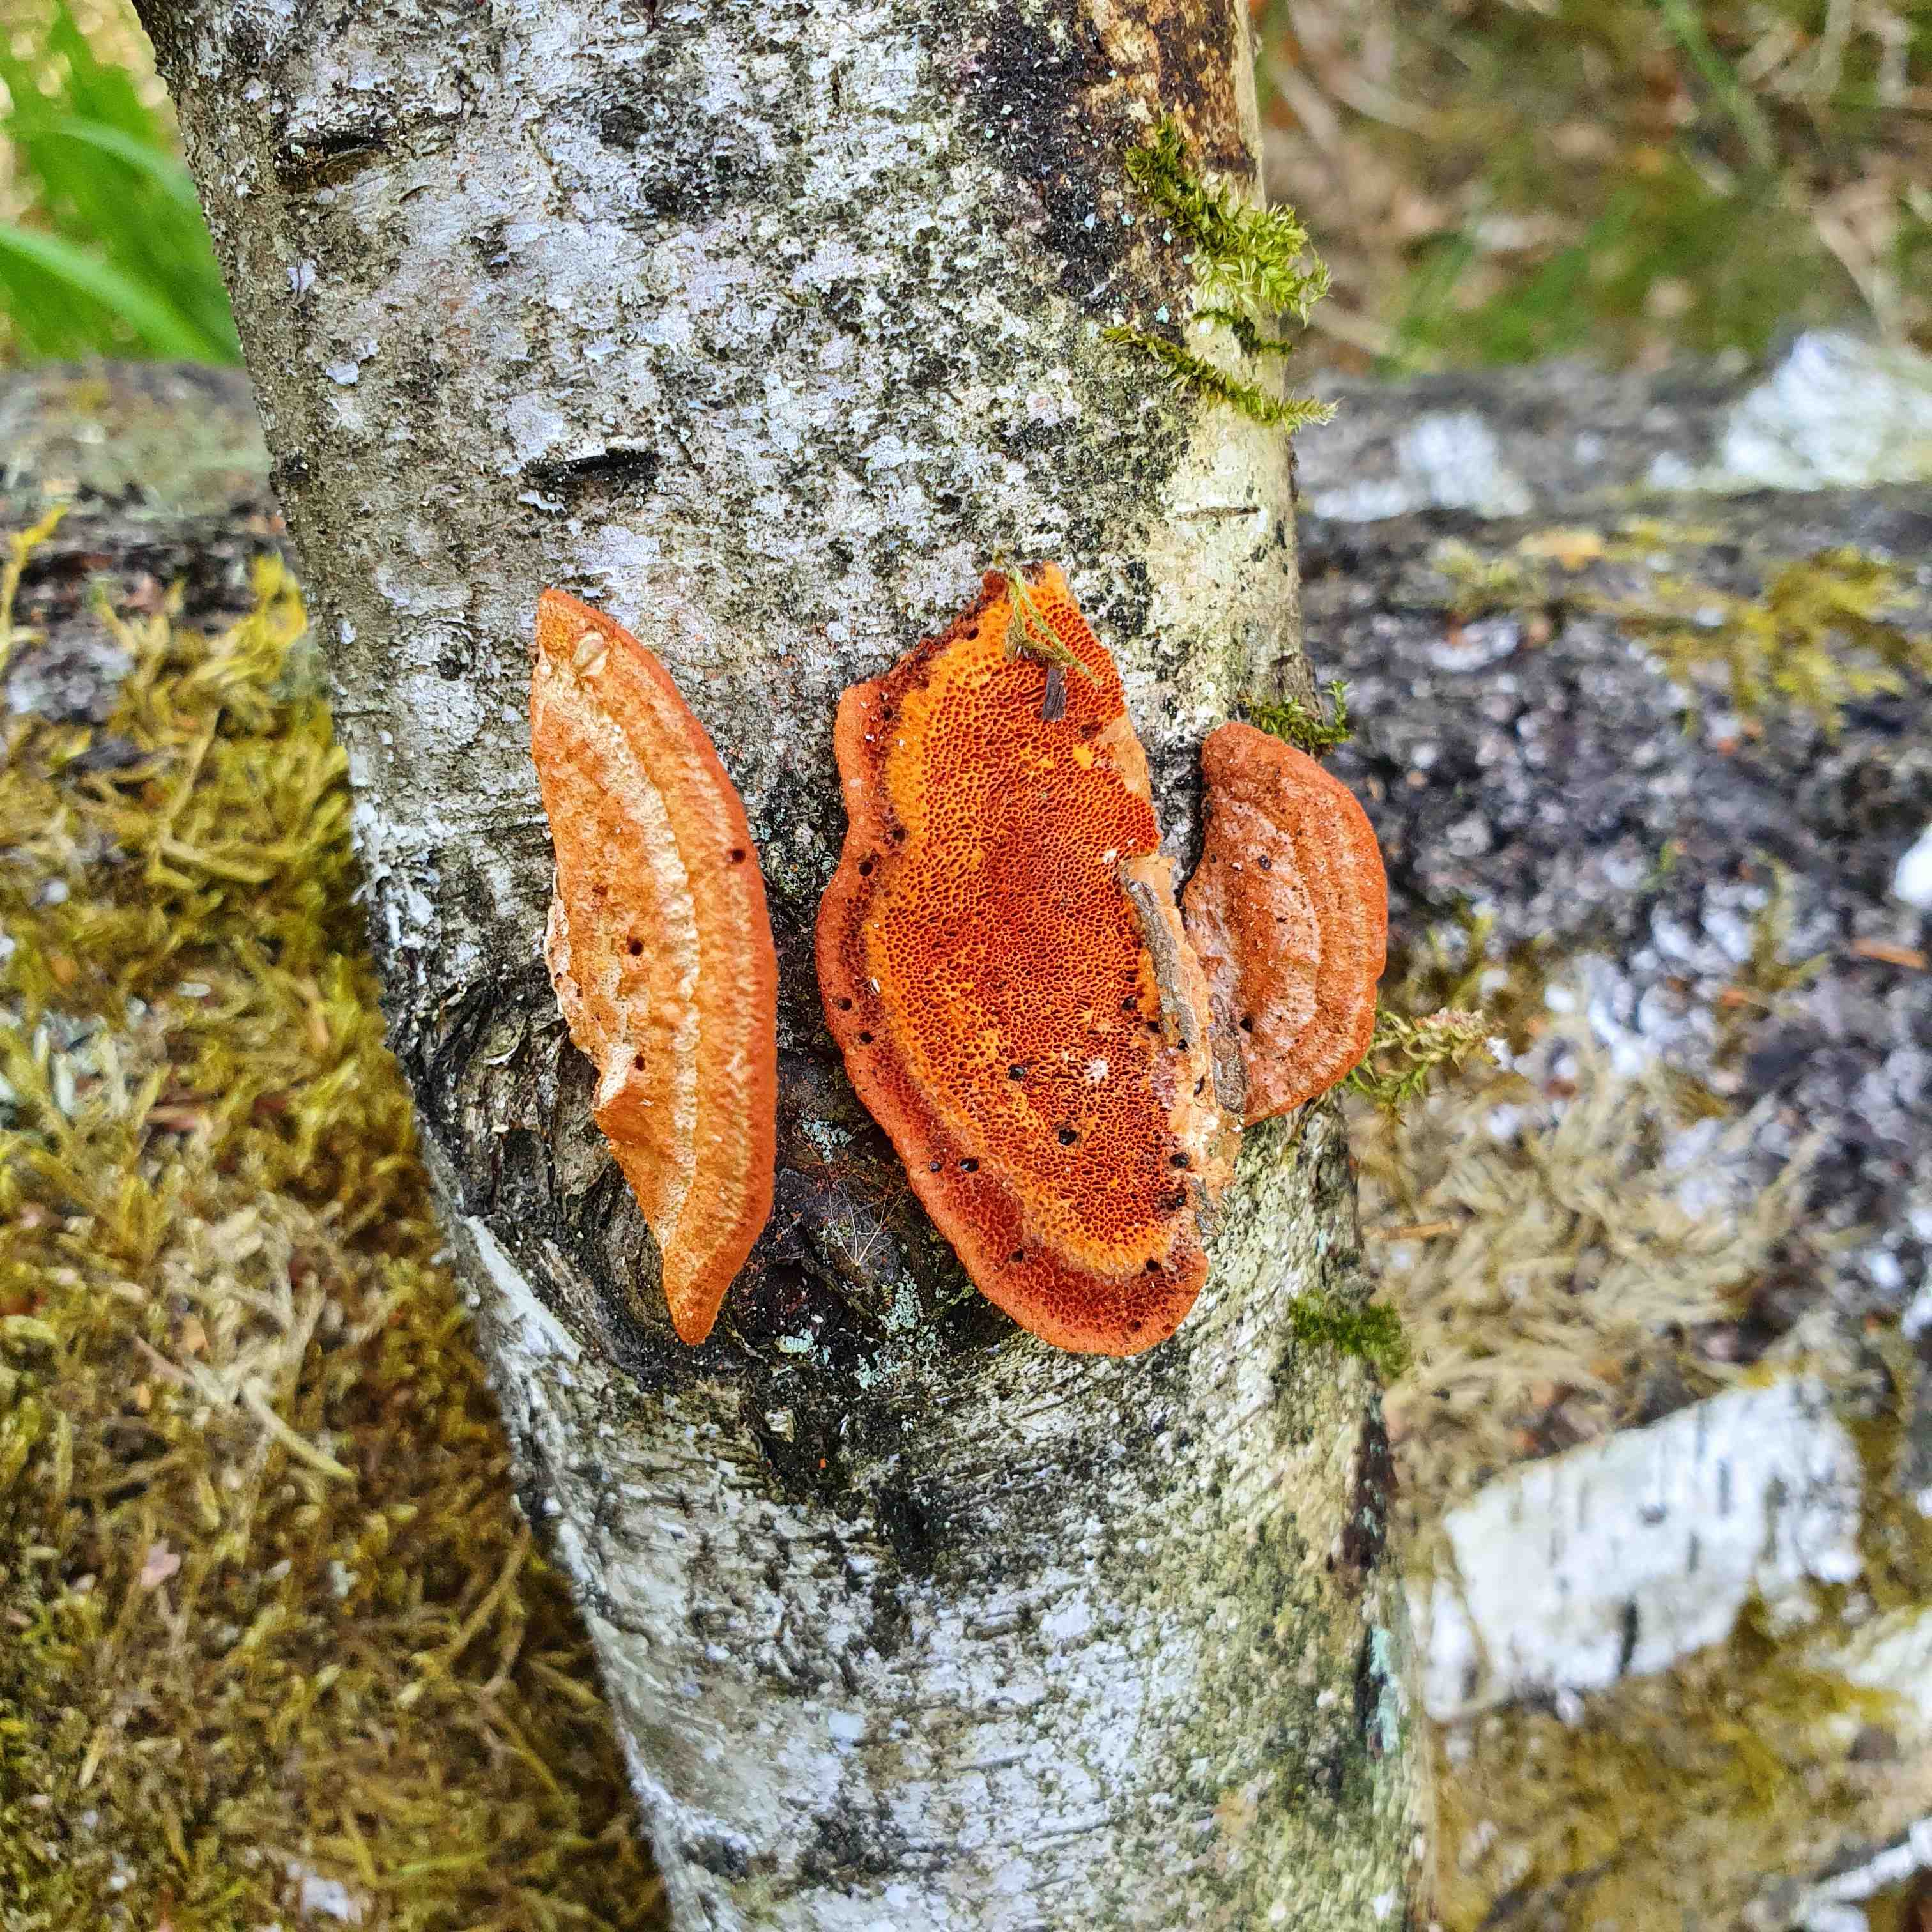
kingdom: Fungi
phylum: Basidiomycota
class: Agaricomycetes
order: Polyporales
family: Polyporaceae
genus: Trametes
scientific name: Trametes cinnabarina
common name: cinnoberporesvamp
